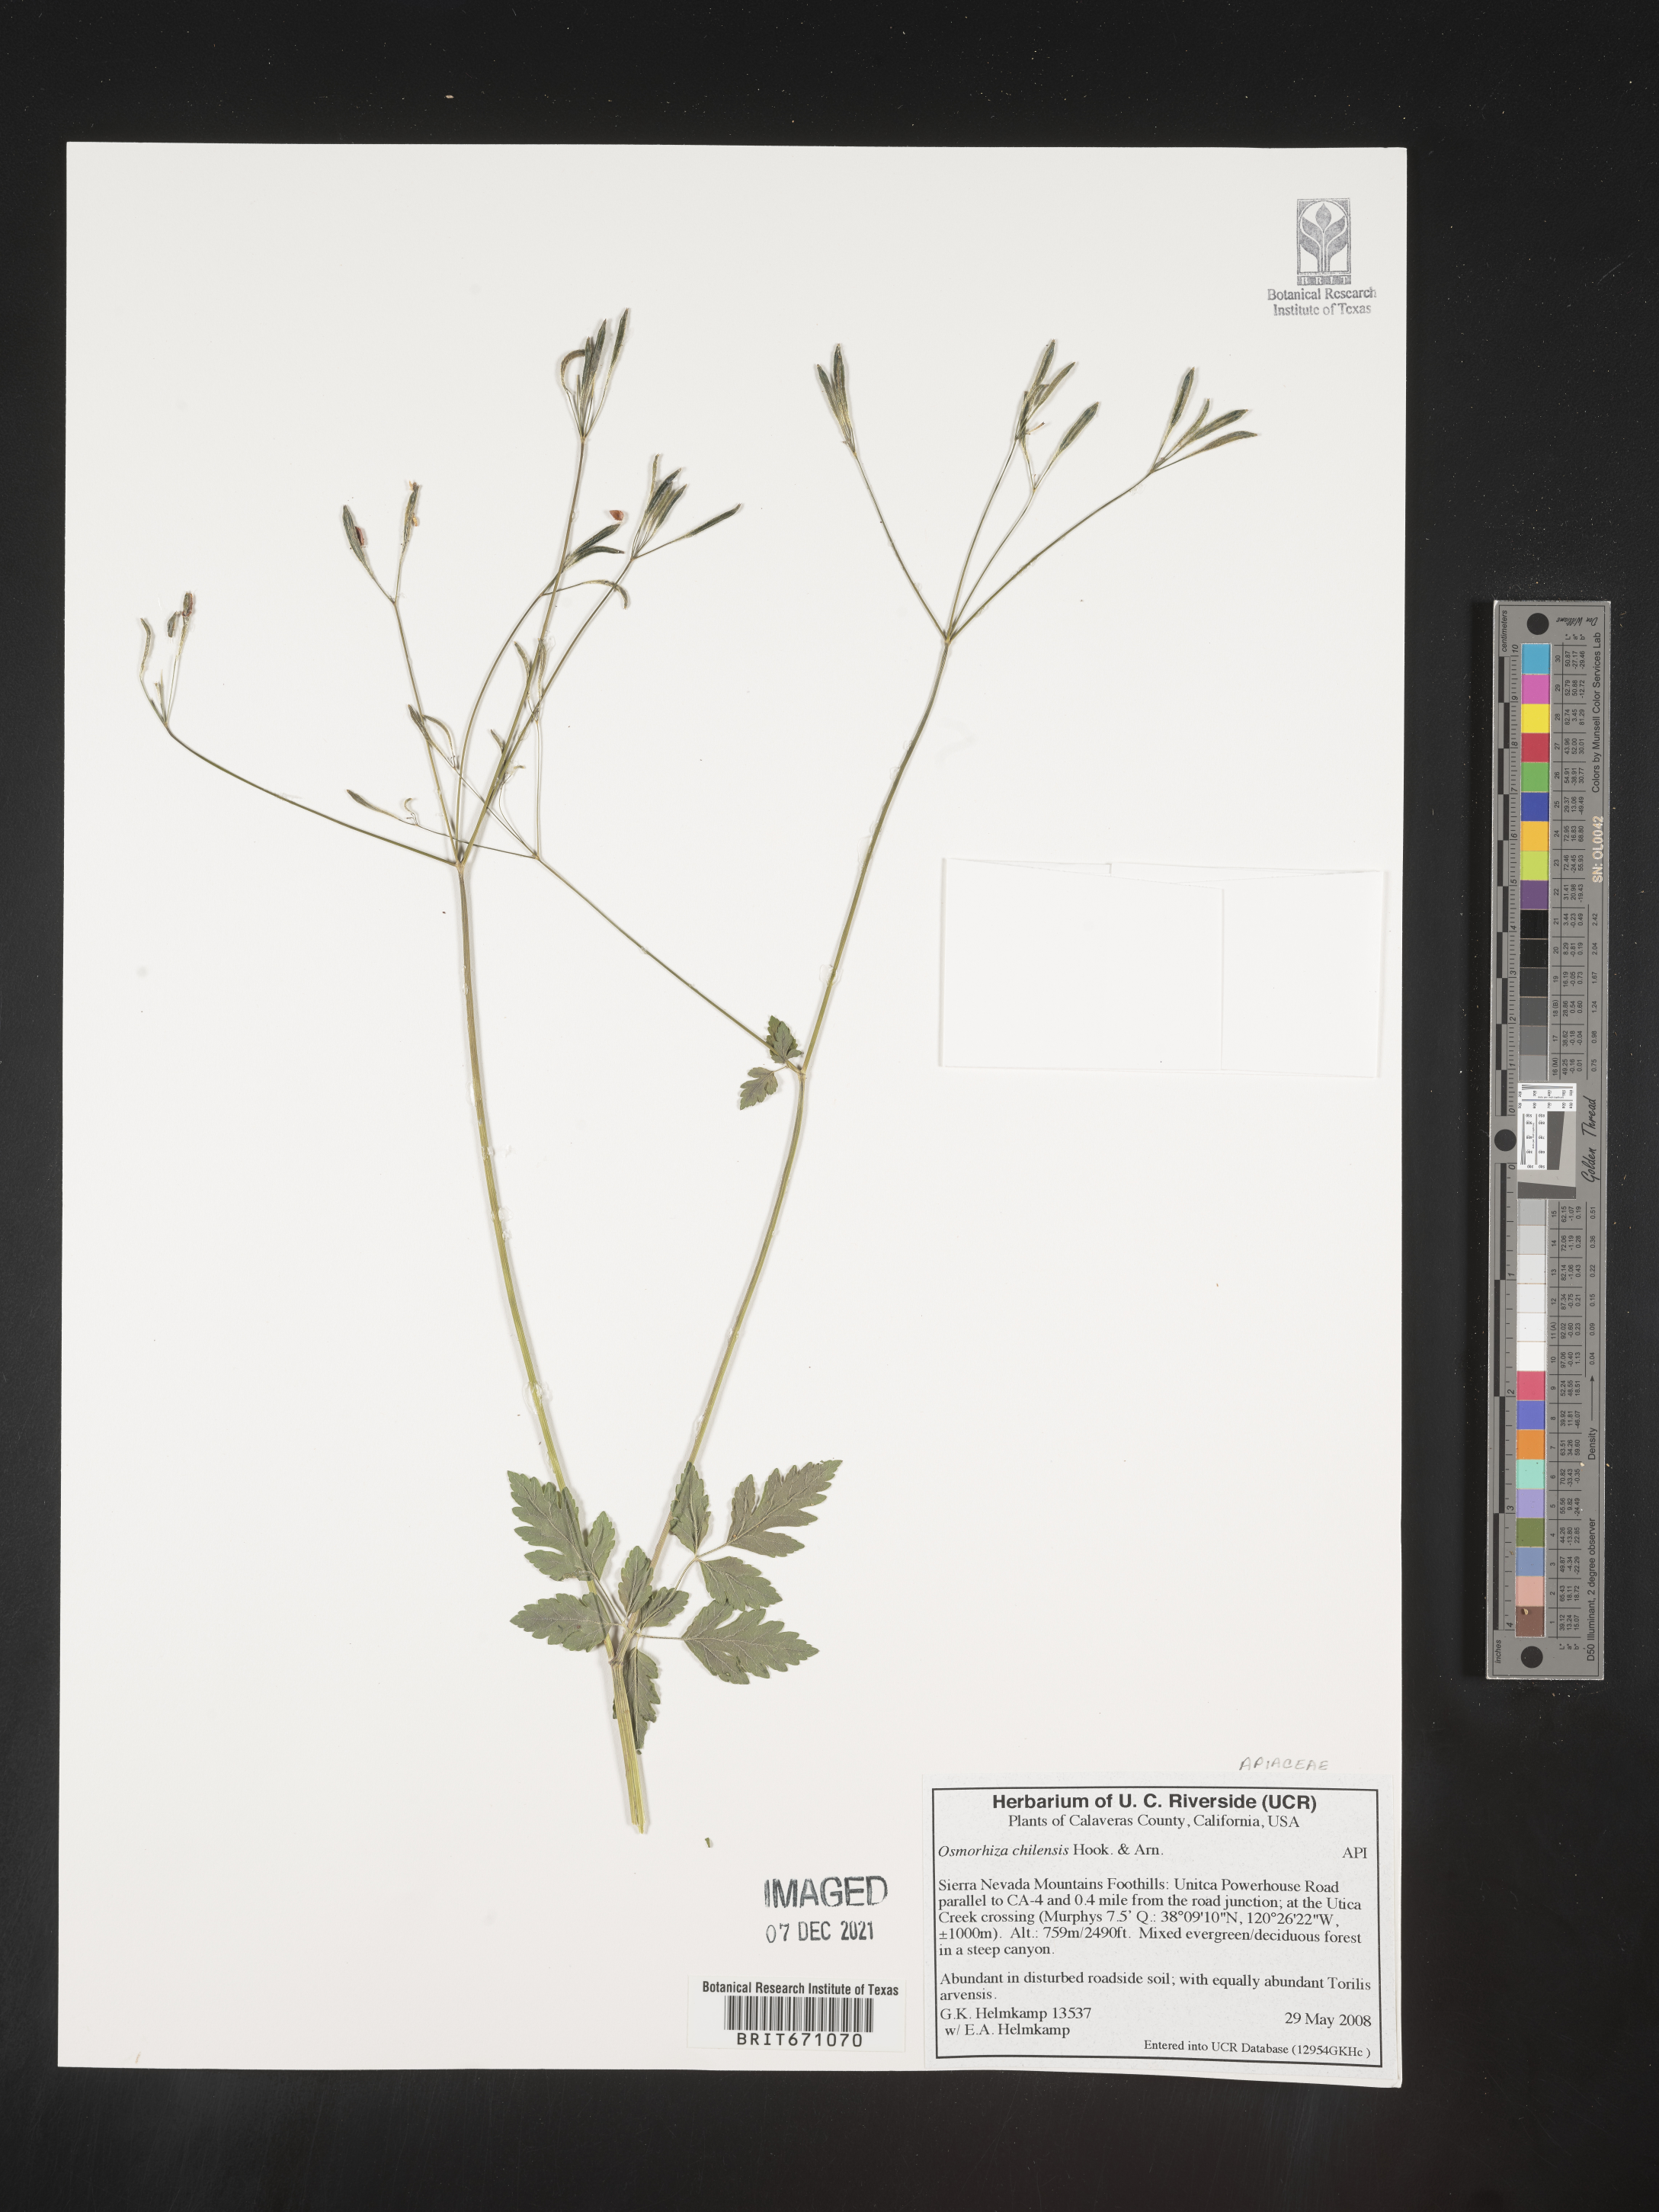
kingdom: Plantae
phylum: Tracheophyta
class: Magnoliopsida
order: Apiales
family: Apiaceae
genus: Osmorhiza
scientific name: Osmorhiza berteroi
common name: Mountain sweet cicely
